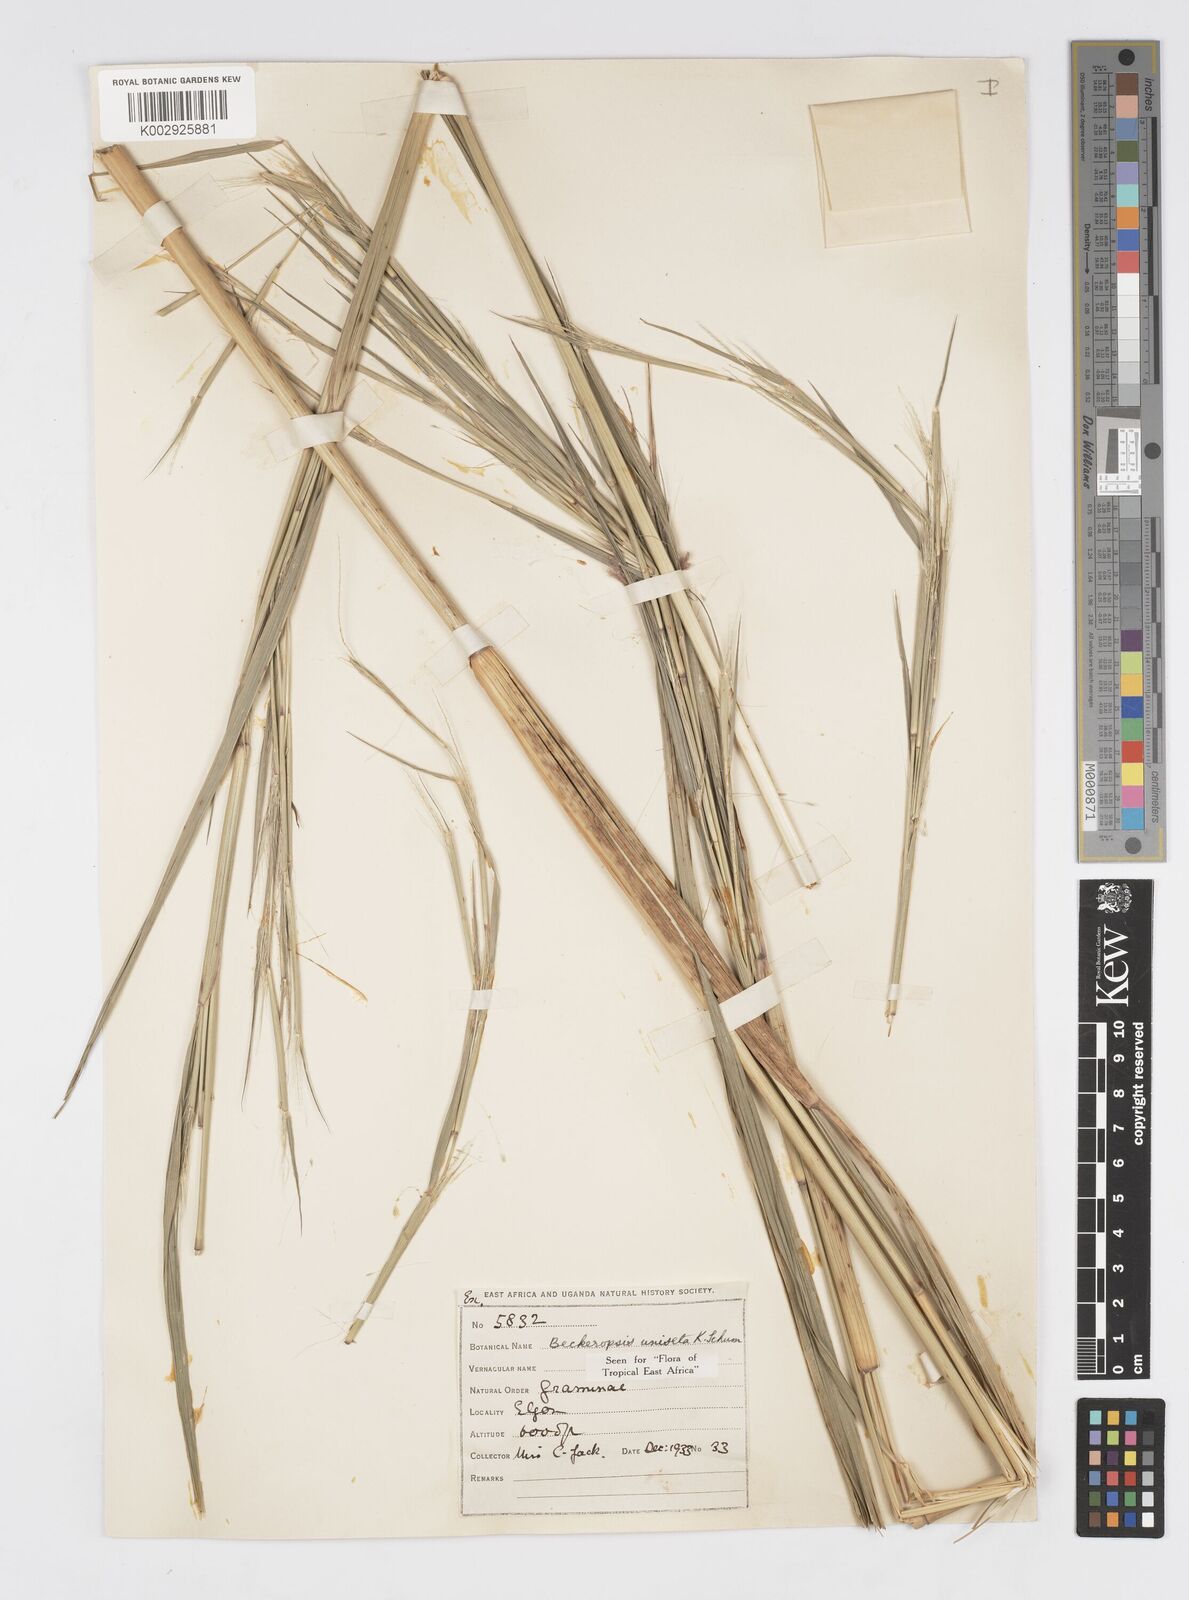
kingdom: Plantae
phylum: Tracheophyta
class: Liliopsida
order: Poales
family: Poaceae
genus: Cenchrus
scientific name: Cenchrus Pennisetum spec
